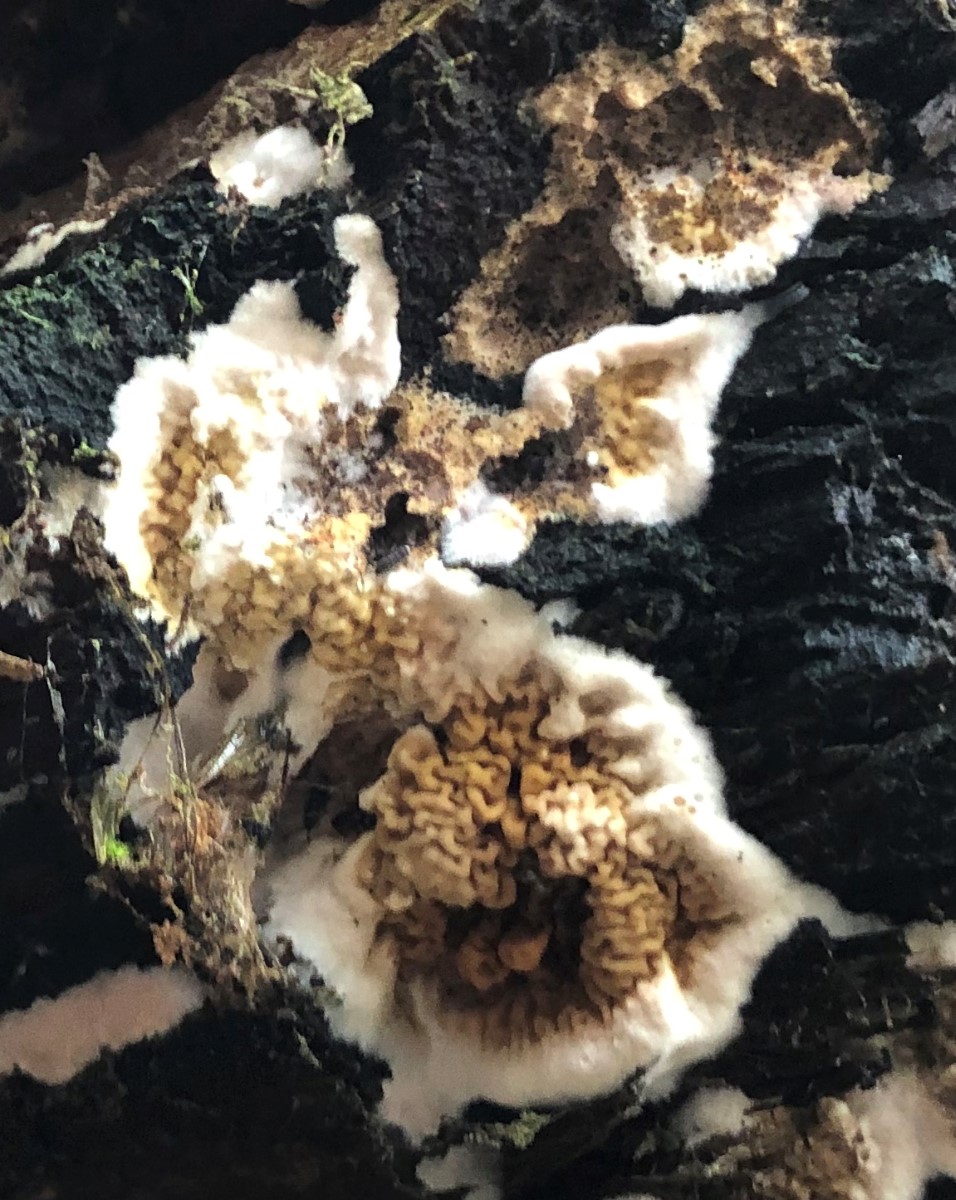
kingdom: Fungi
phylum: Basidiomycota
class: Agaricomycetes
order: Boletales
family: Serpulaceae
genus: Serpula
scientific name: Serpula himantioides
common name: tyndkødet hussvamp
